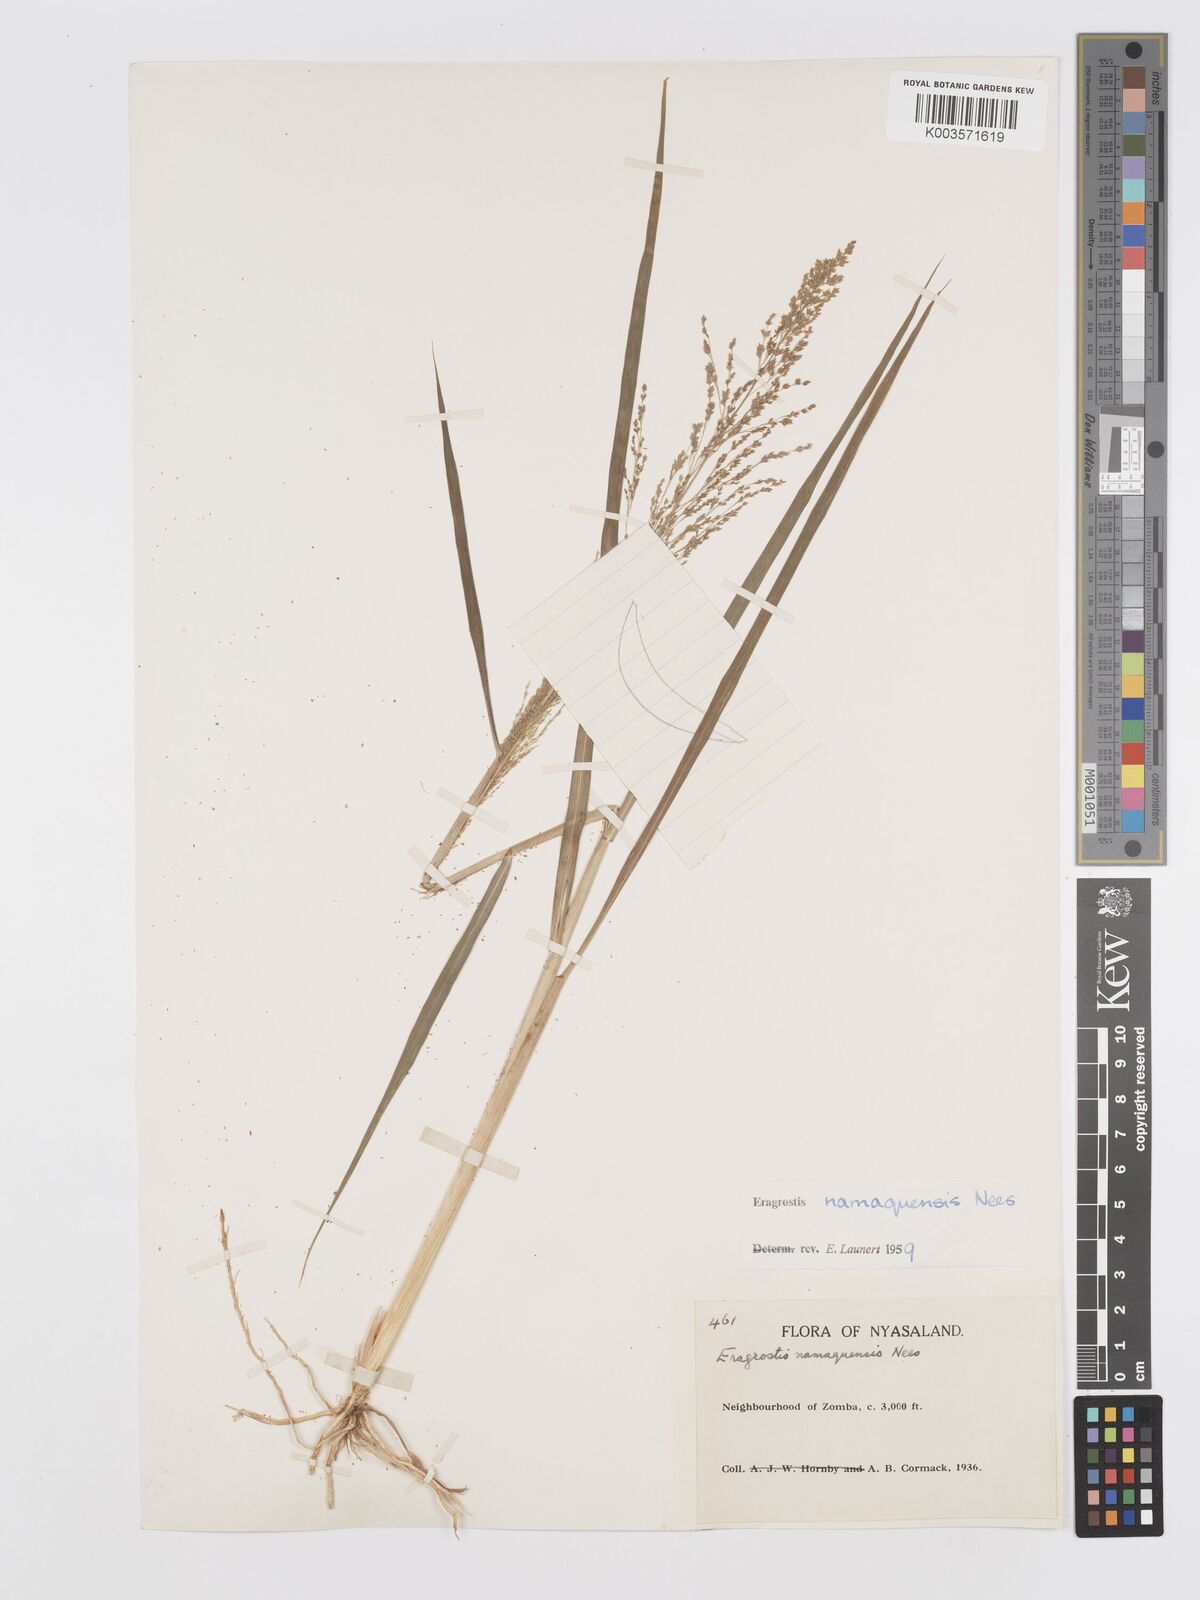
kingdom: Plantae
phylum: Tracheophyta
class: Liliopsida
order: Poales
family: Poaceae
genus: Eragrostis
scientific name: Eragrostis japonica
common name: Pond lovegrass
